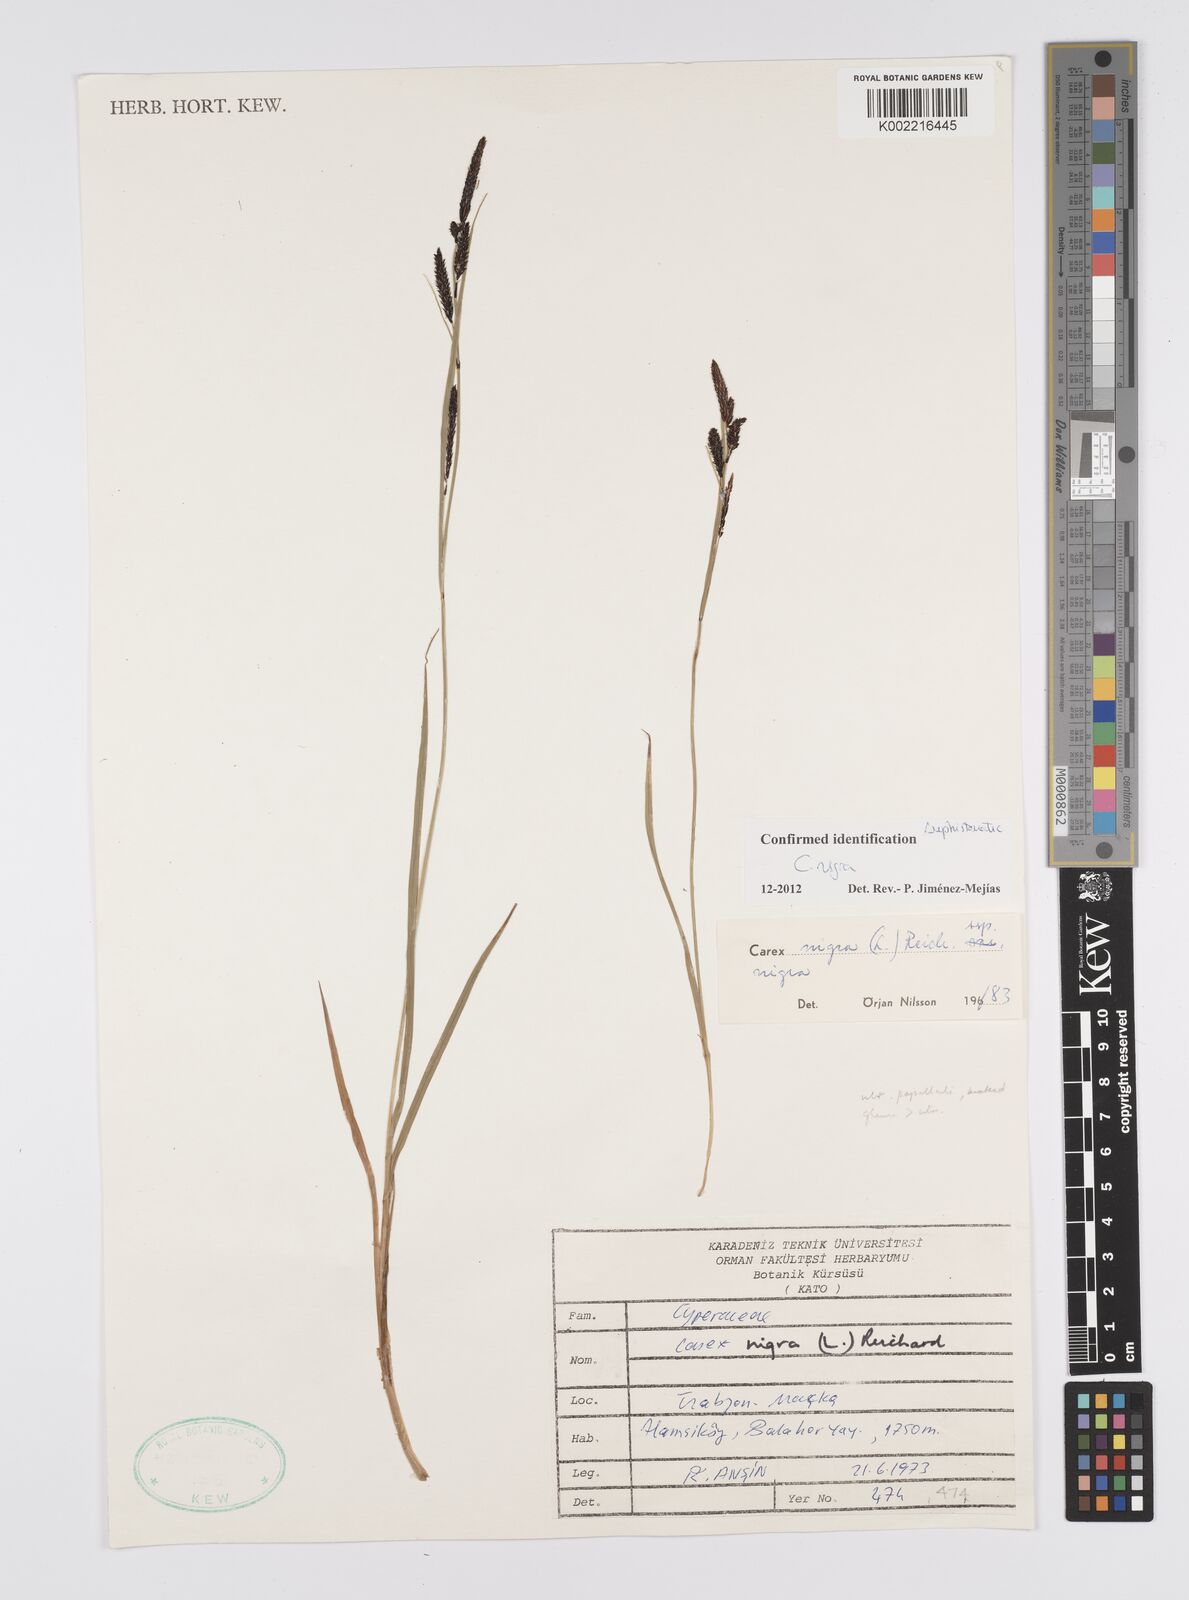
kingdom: Plantae
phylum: Tracheophyta
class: Liliopsida
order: Poales
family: Cyperaceae
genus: Carex
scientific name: Carex nigra
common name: Common sedge
